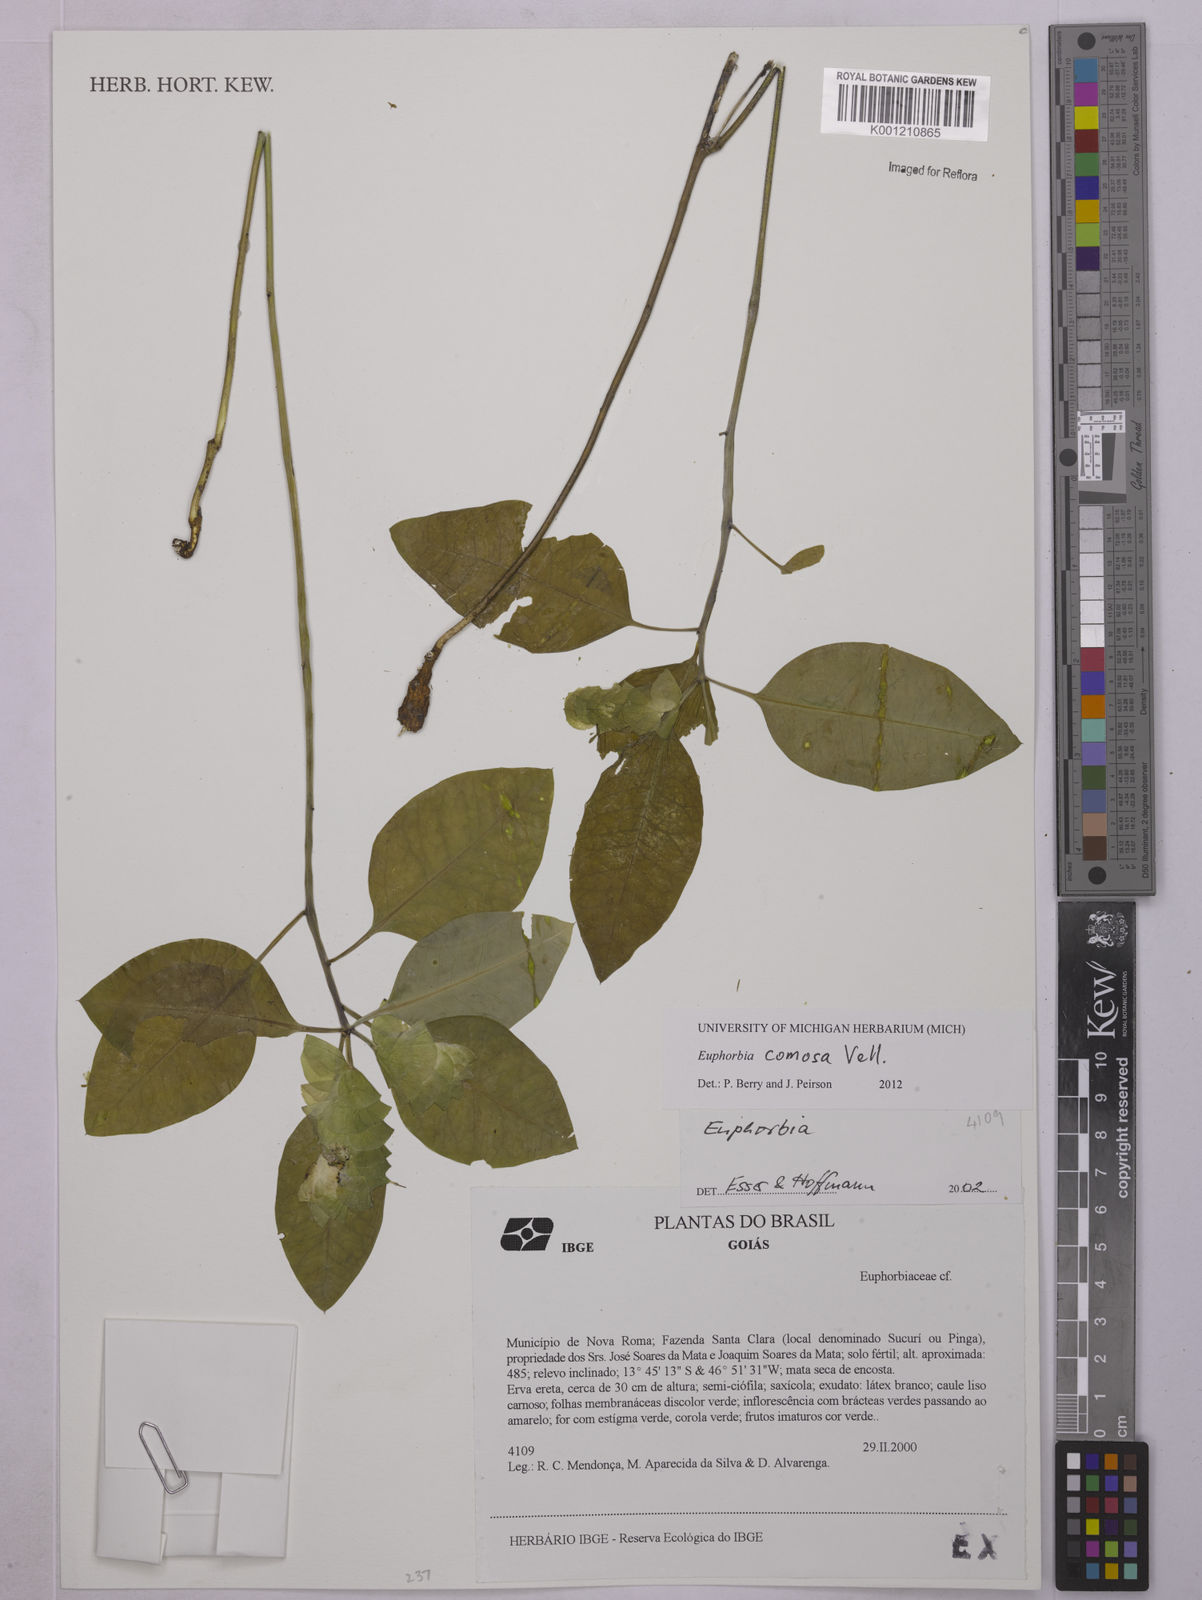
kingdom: Plantae
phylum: Tracheophyta
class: Magnoliopsida
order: Malpighiales
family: Euphorbiaceae
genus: Euphorbia
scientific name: Euphorbia comosa
